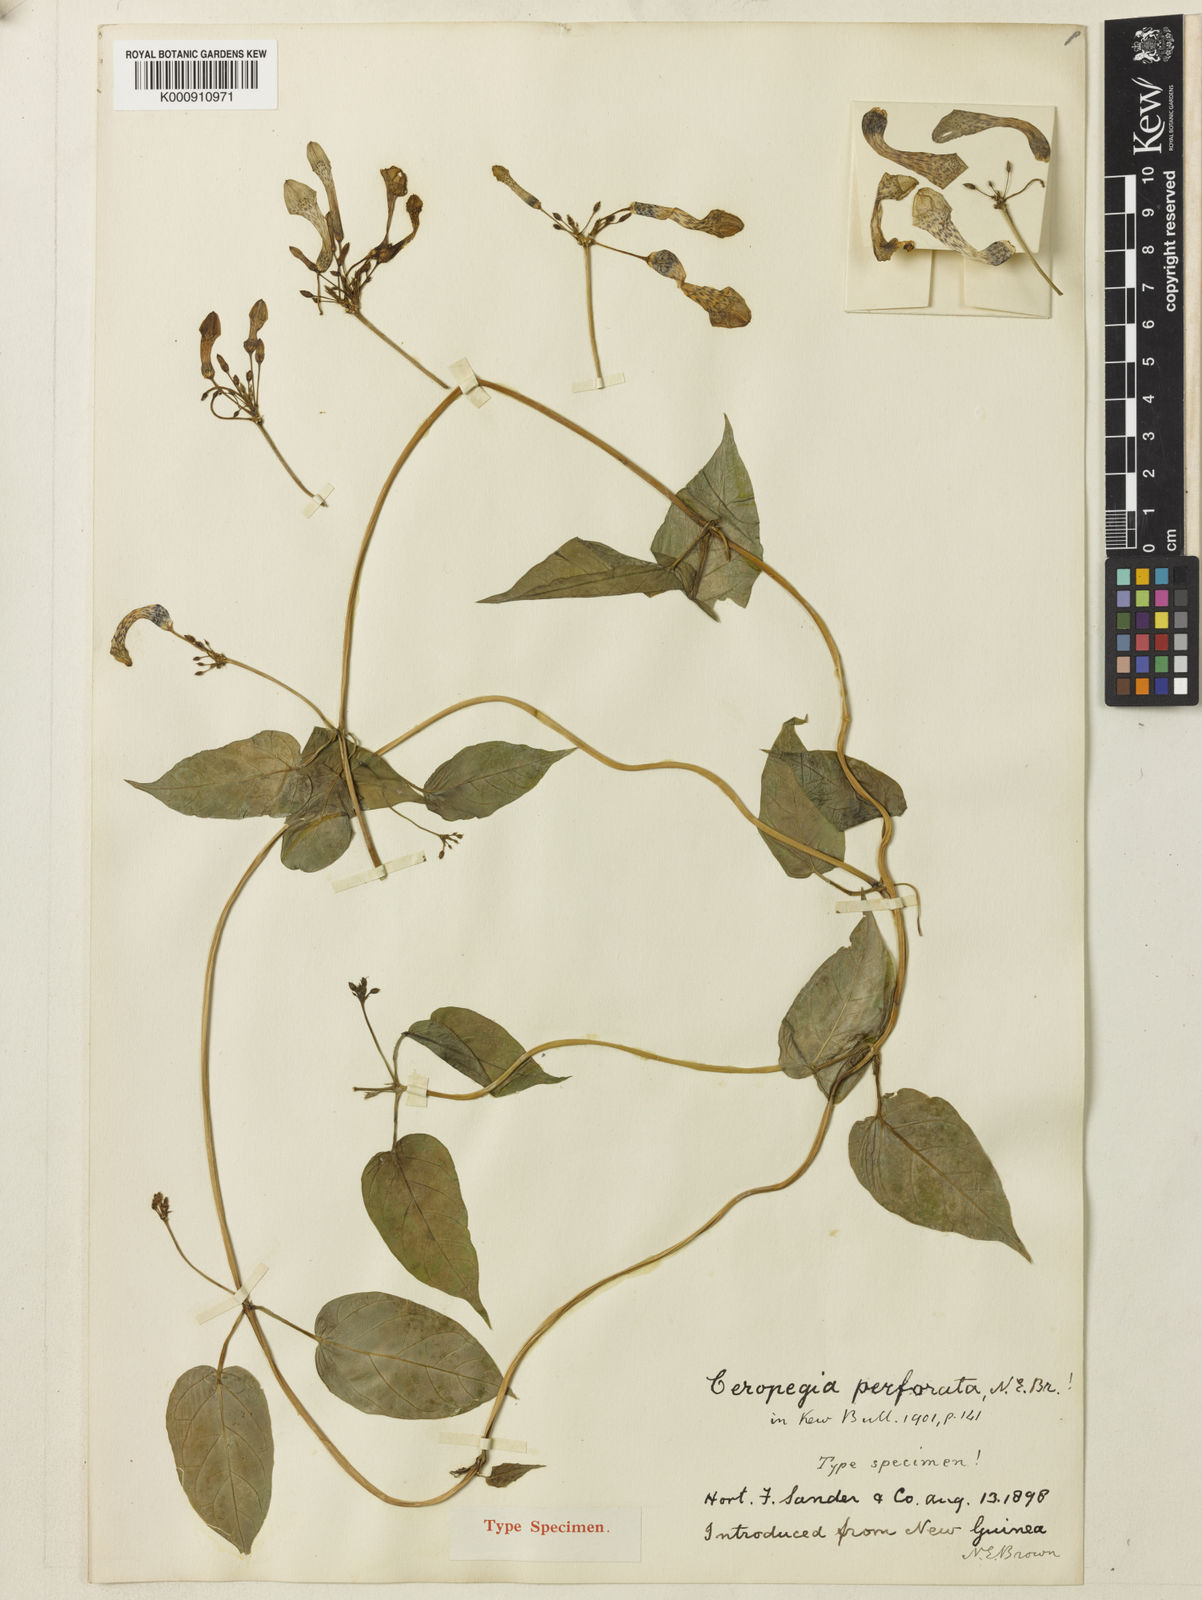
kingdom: Plantae
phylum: Tracheophyta
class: Magnoliopsida
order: Gentianales
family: Apocynaceae
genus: Ceropegia
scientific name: Ceropegia cumingiana
